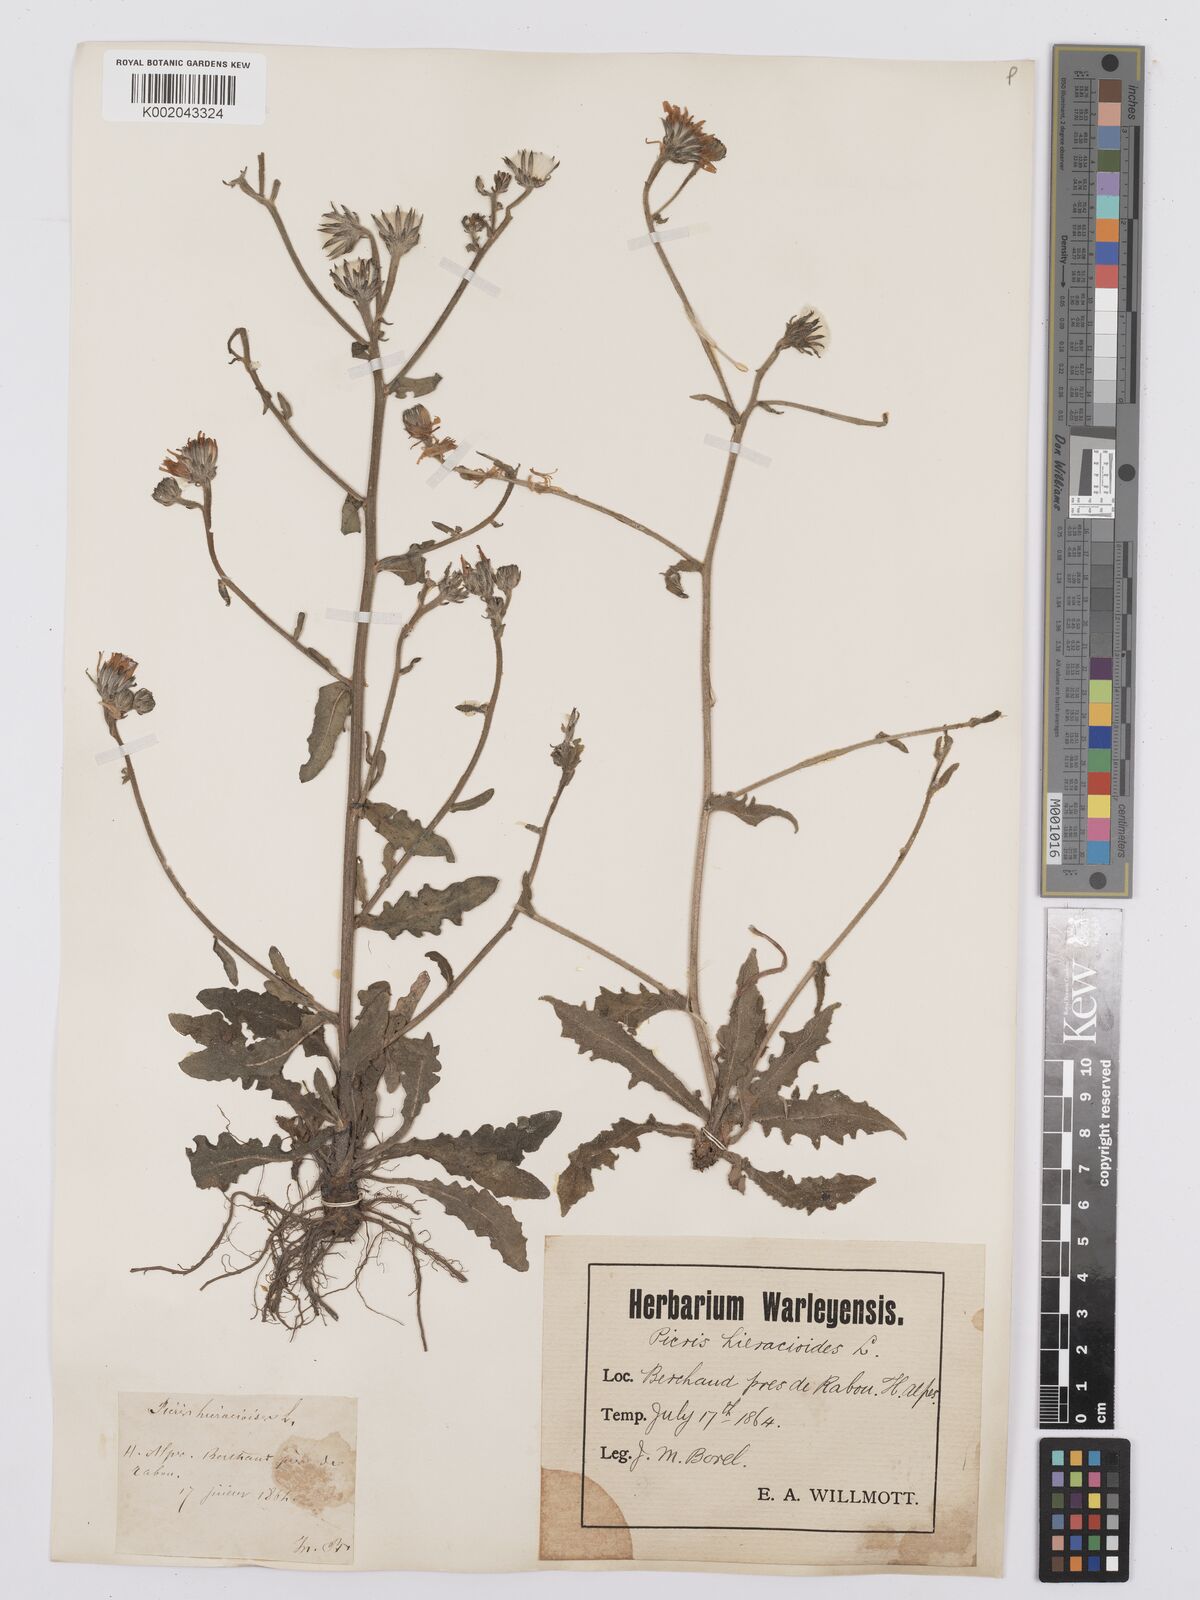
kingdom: Plantae
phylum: Tracheophyta
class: Magnoliopsida
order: Asterales
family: Asteraceae
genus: Picris
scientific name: Picris hieracioides
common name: Hawkweed oxtongue
